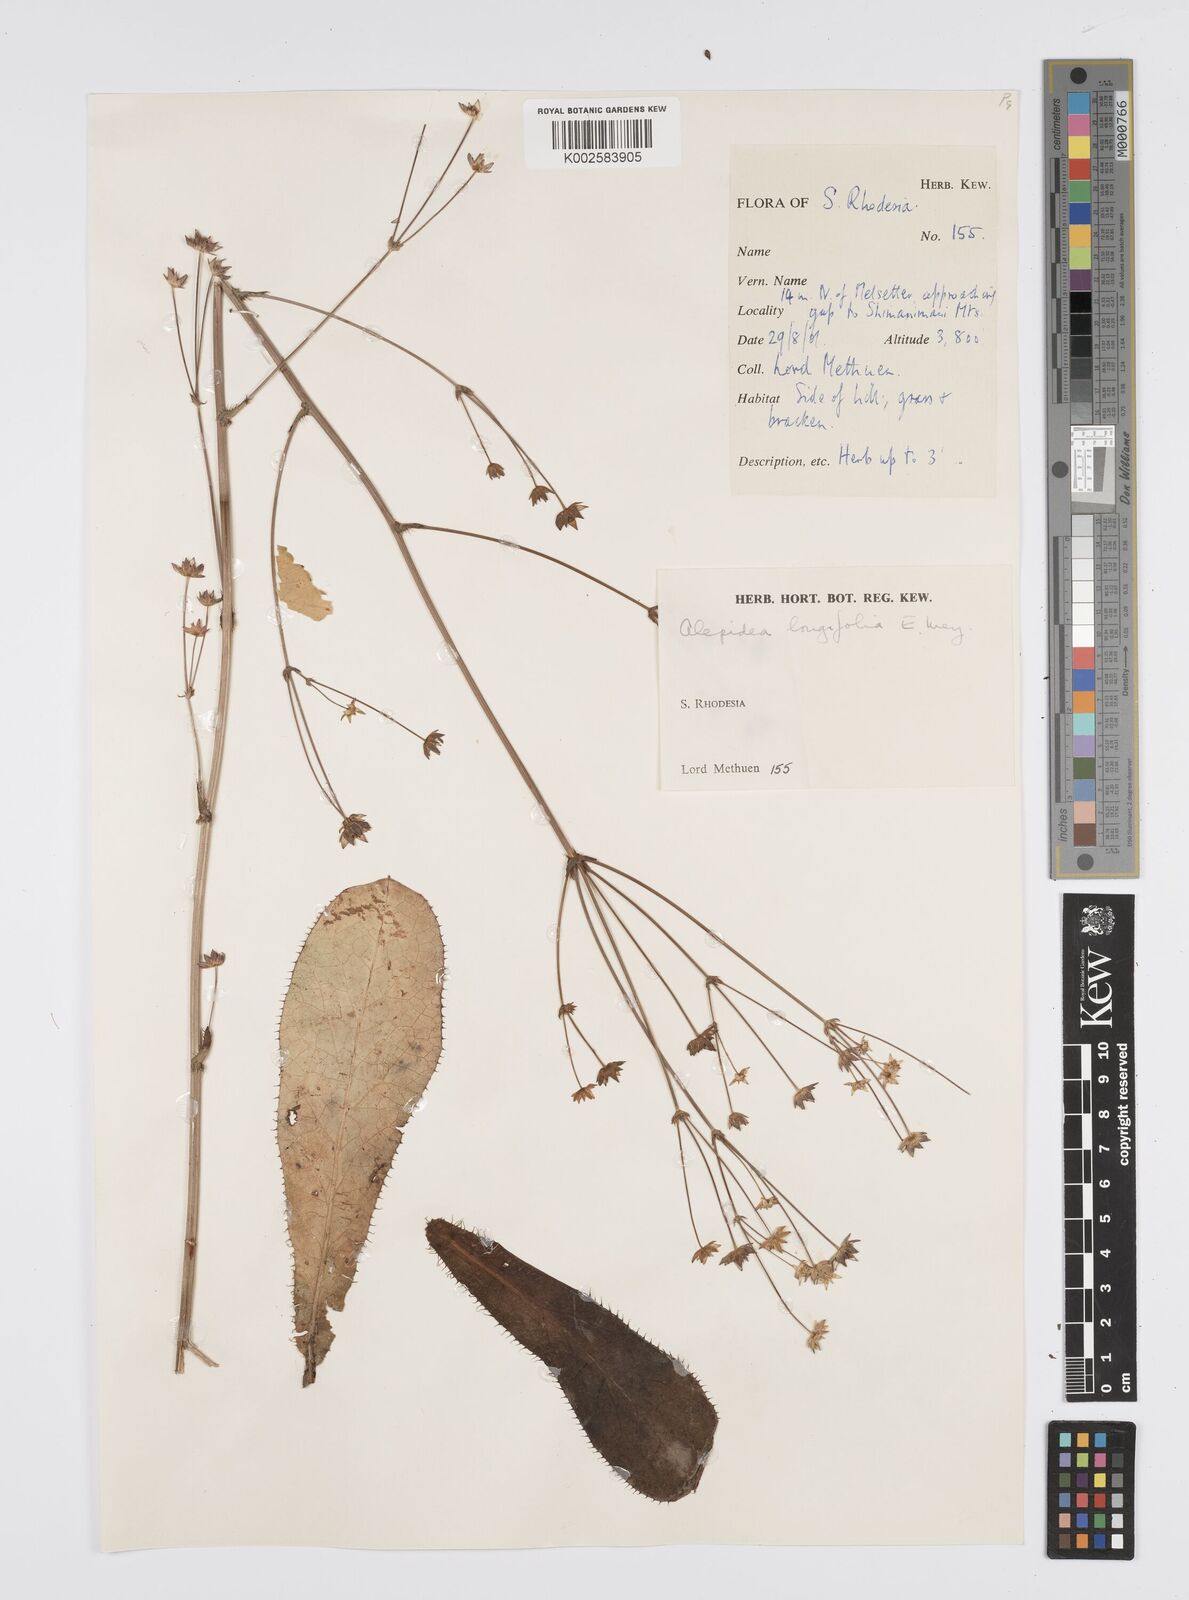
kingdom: Plantae
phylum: Tracheophyta
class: Magnoliopsida
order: Apiales
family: Apiaceae
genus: Alepidea
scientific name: Alepidea
